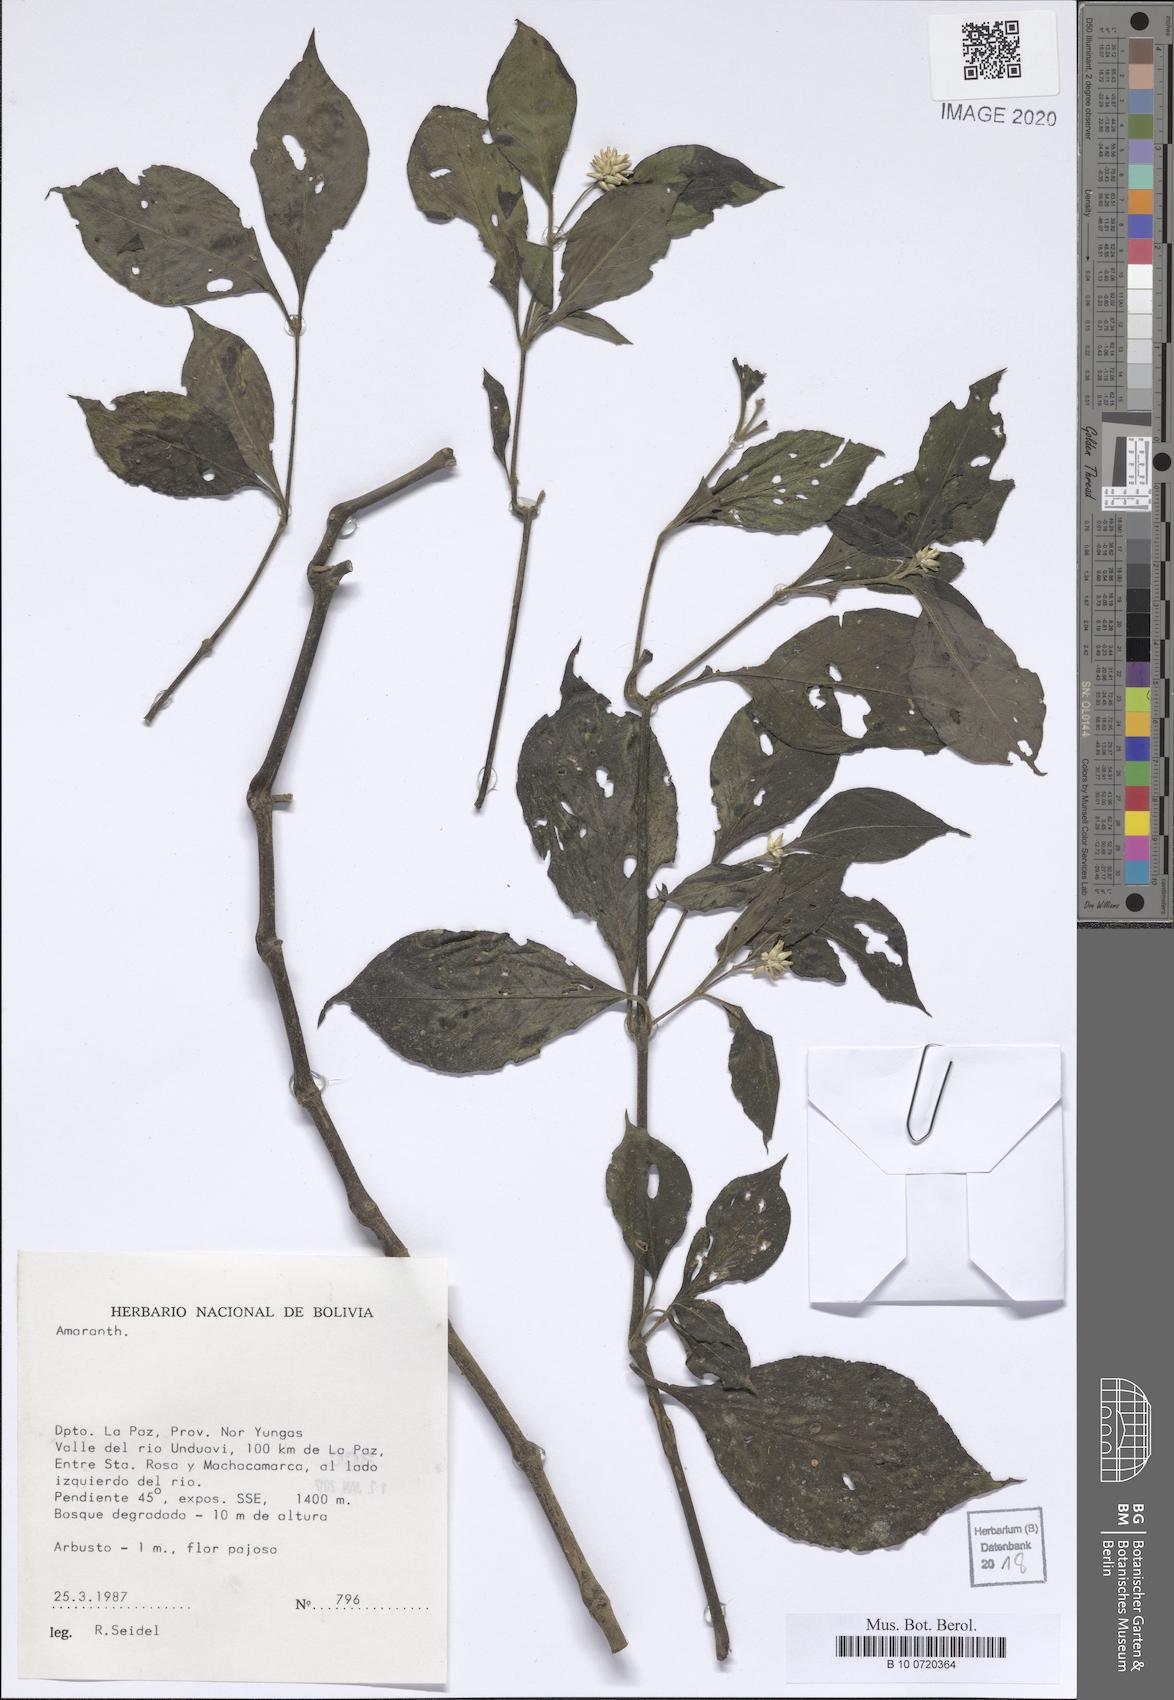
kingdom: Plantae
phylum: Tracheophyta
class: Magnoliopsida
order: Caryophyllales
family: Amaranthaceae
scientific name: Amaranthaceae
